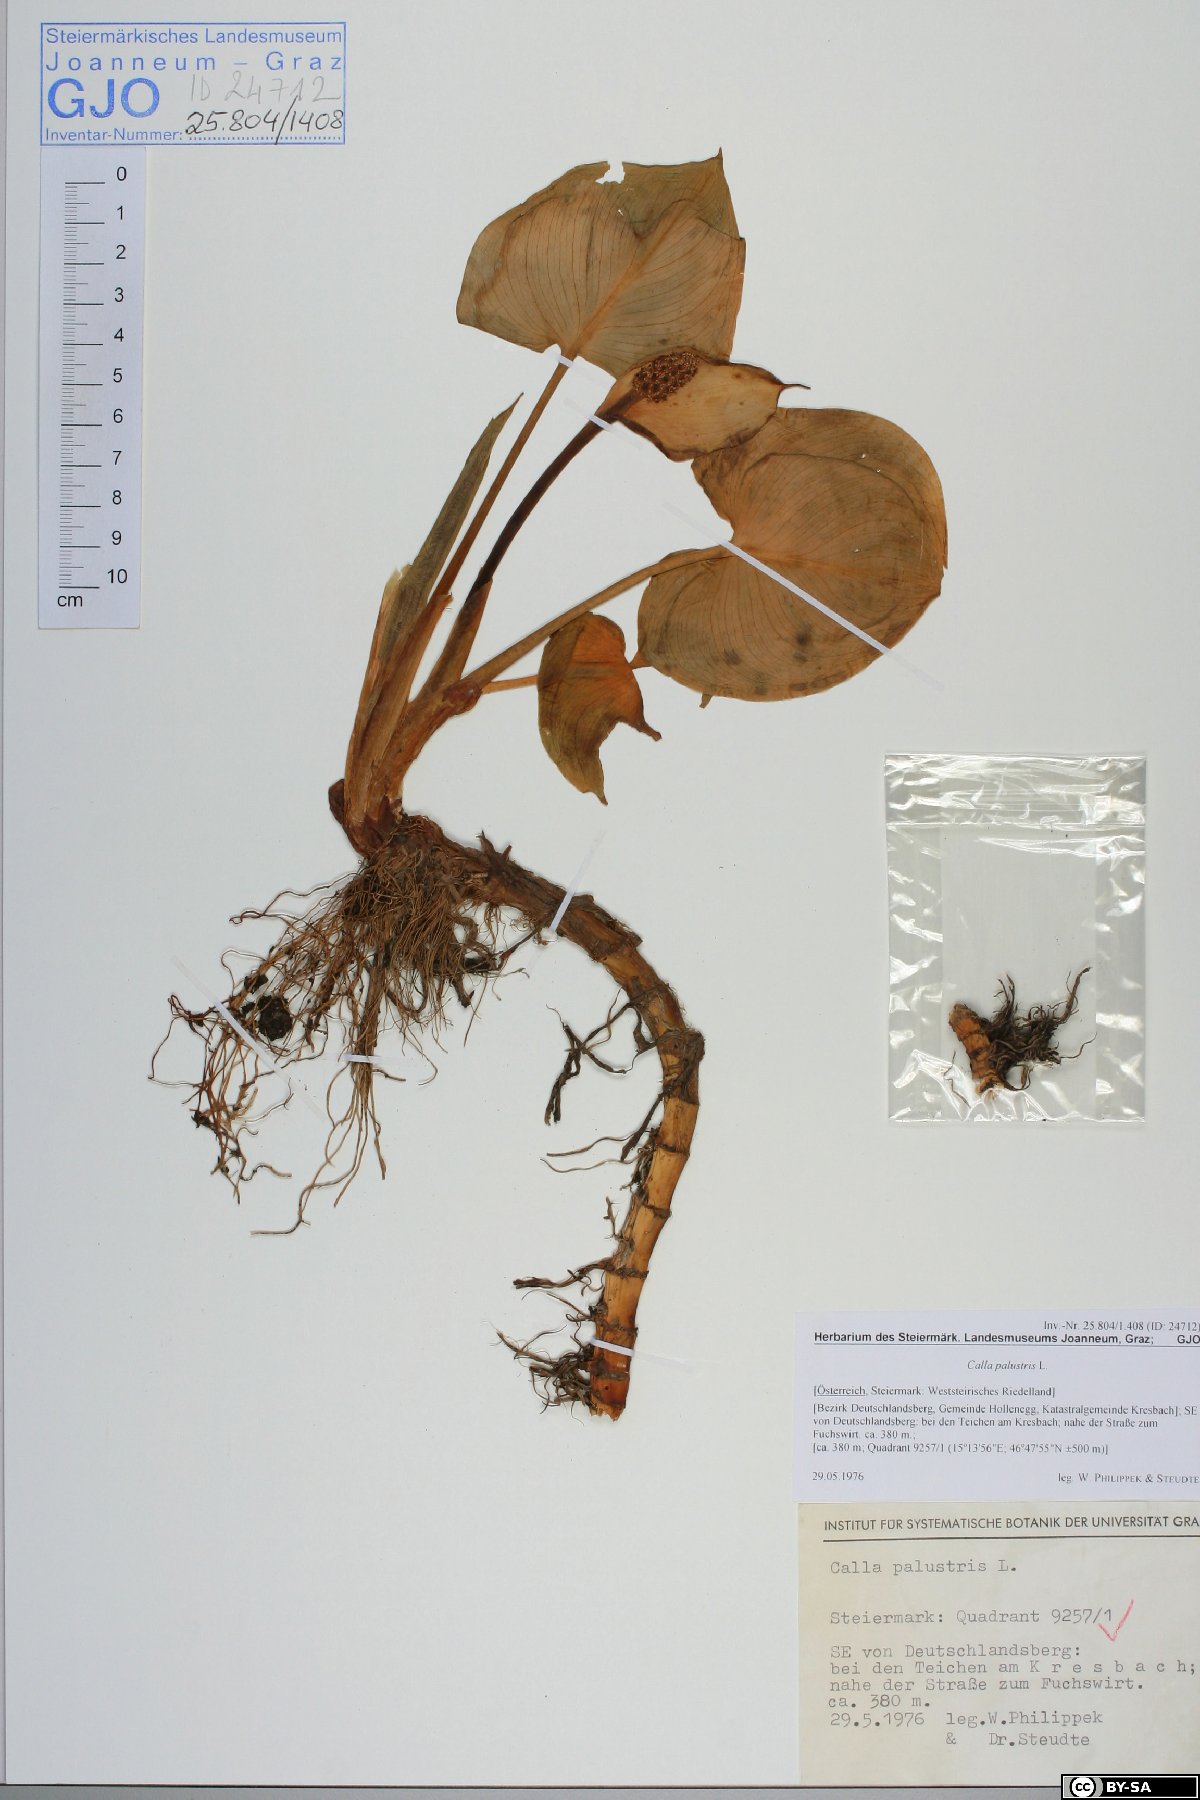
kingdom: Plantae
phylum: Tracheophyta
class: Liliopsida
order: Alismatales
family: Araceae
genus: Calla
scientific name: Calla palustris
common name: Bog arum
